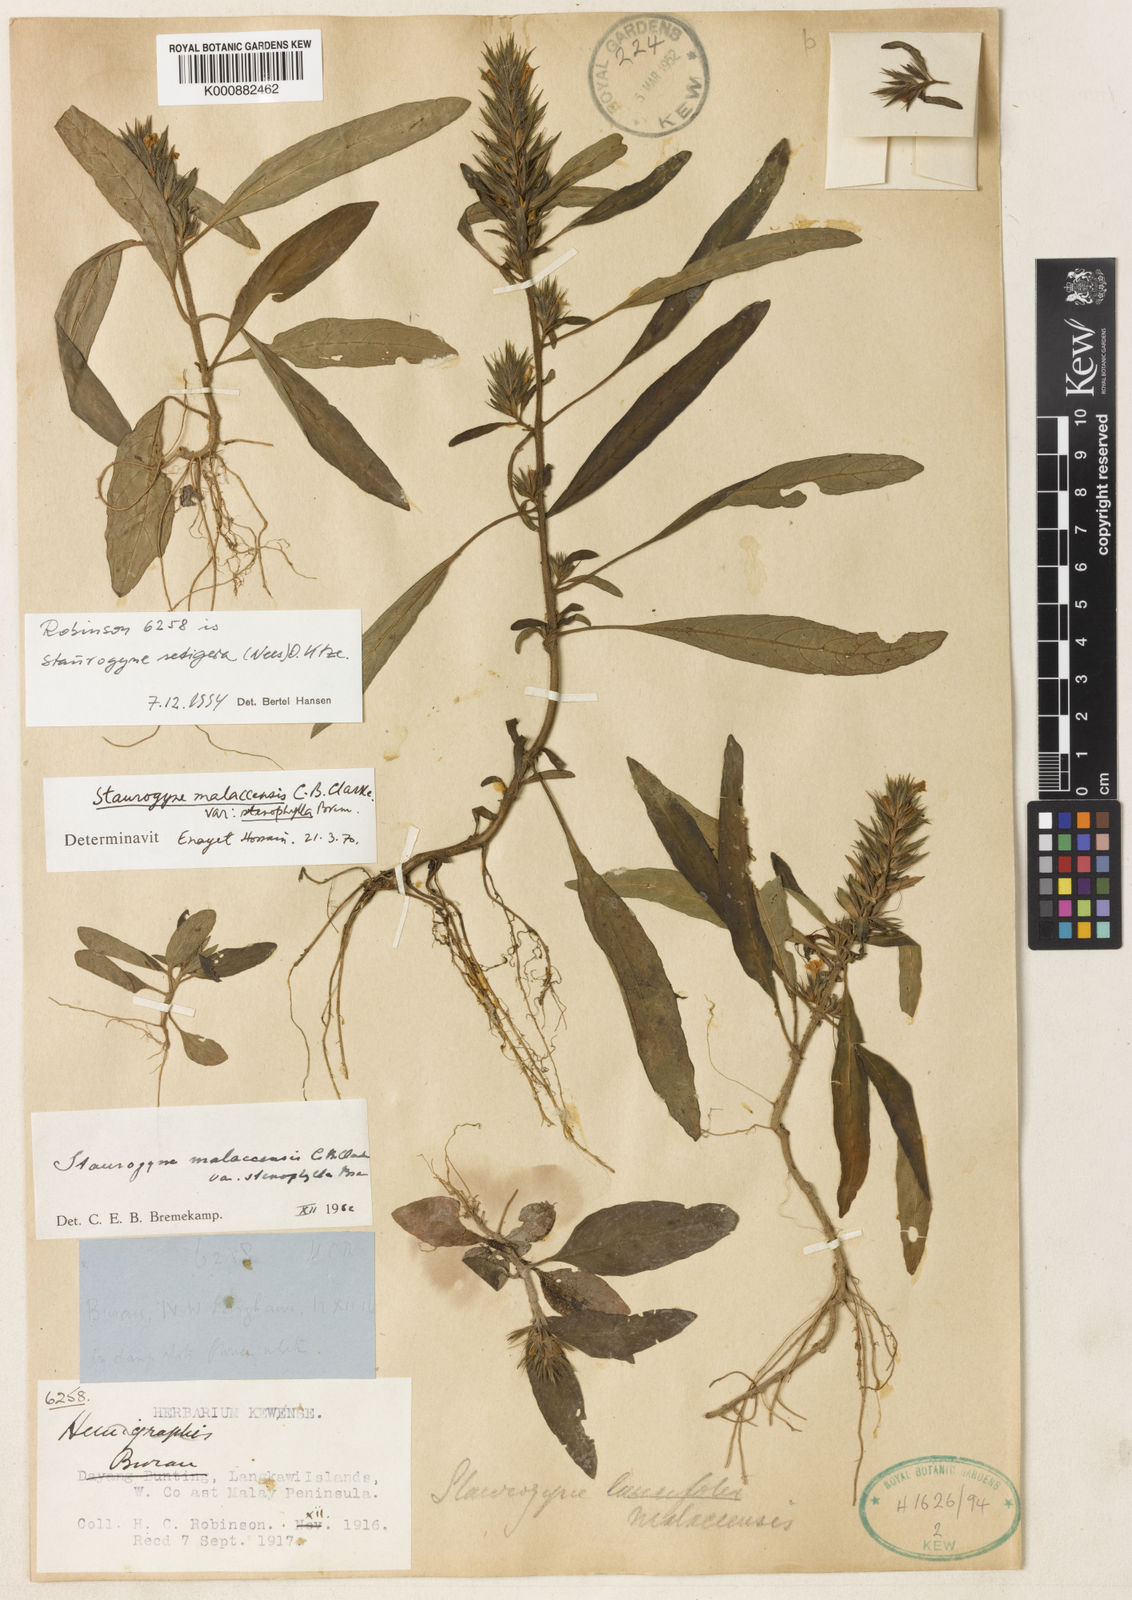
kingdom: Plantae
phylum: Tracheophyta
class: Magnoliopsida
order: Lamiales
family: Acanthaceae
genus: Staurogyne
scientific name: Staurogyne setigera
